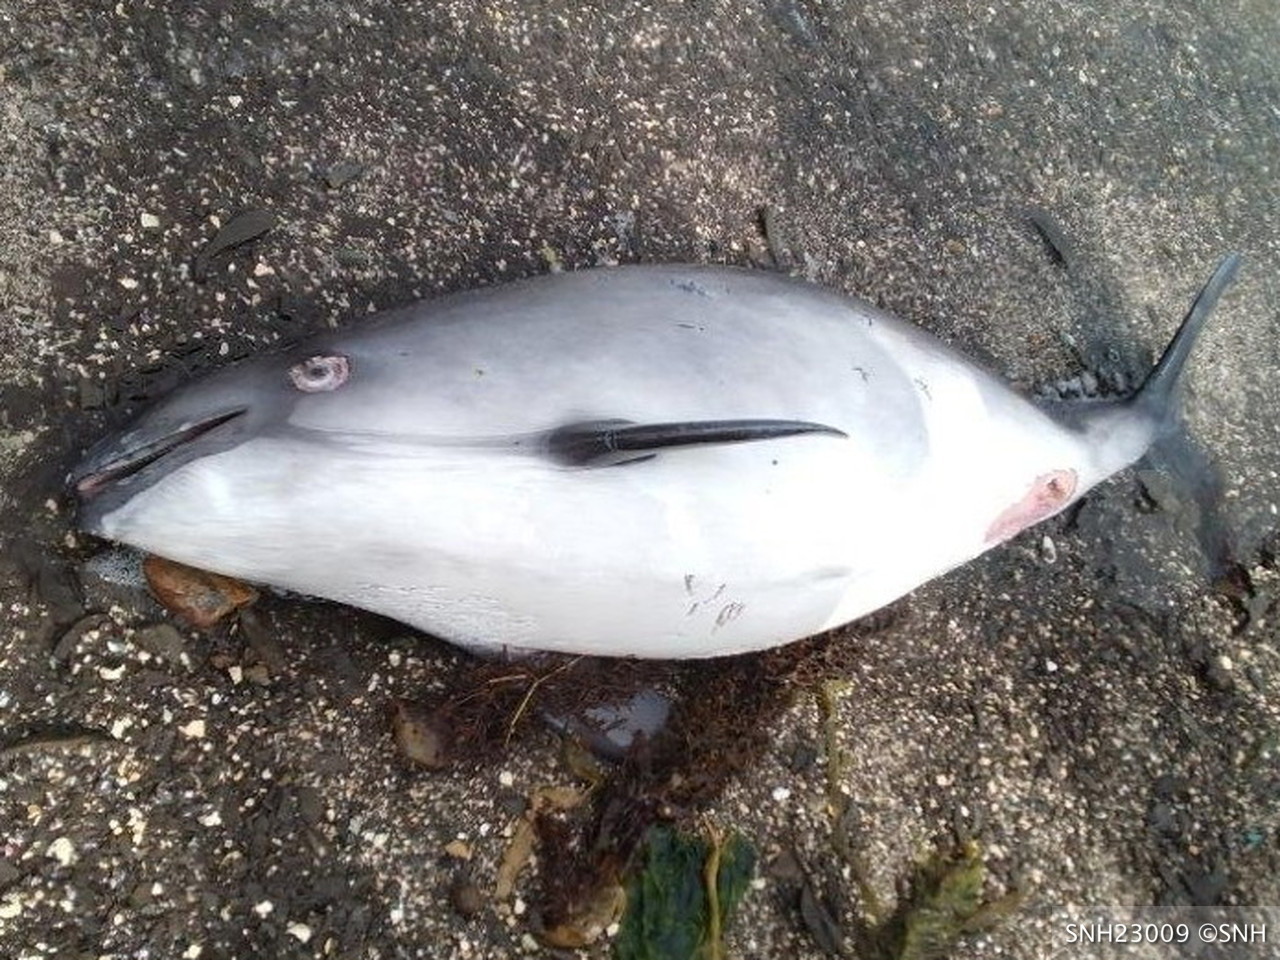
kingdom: Animalia
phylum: Chordata
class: Mammalia
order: Cetacea
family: Phocoenidae
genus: Phocoena
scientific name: Phocoena phocoena
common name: Harbour porpoise
